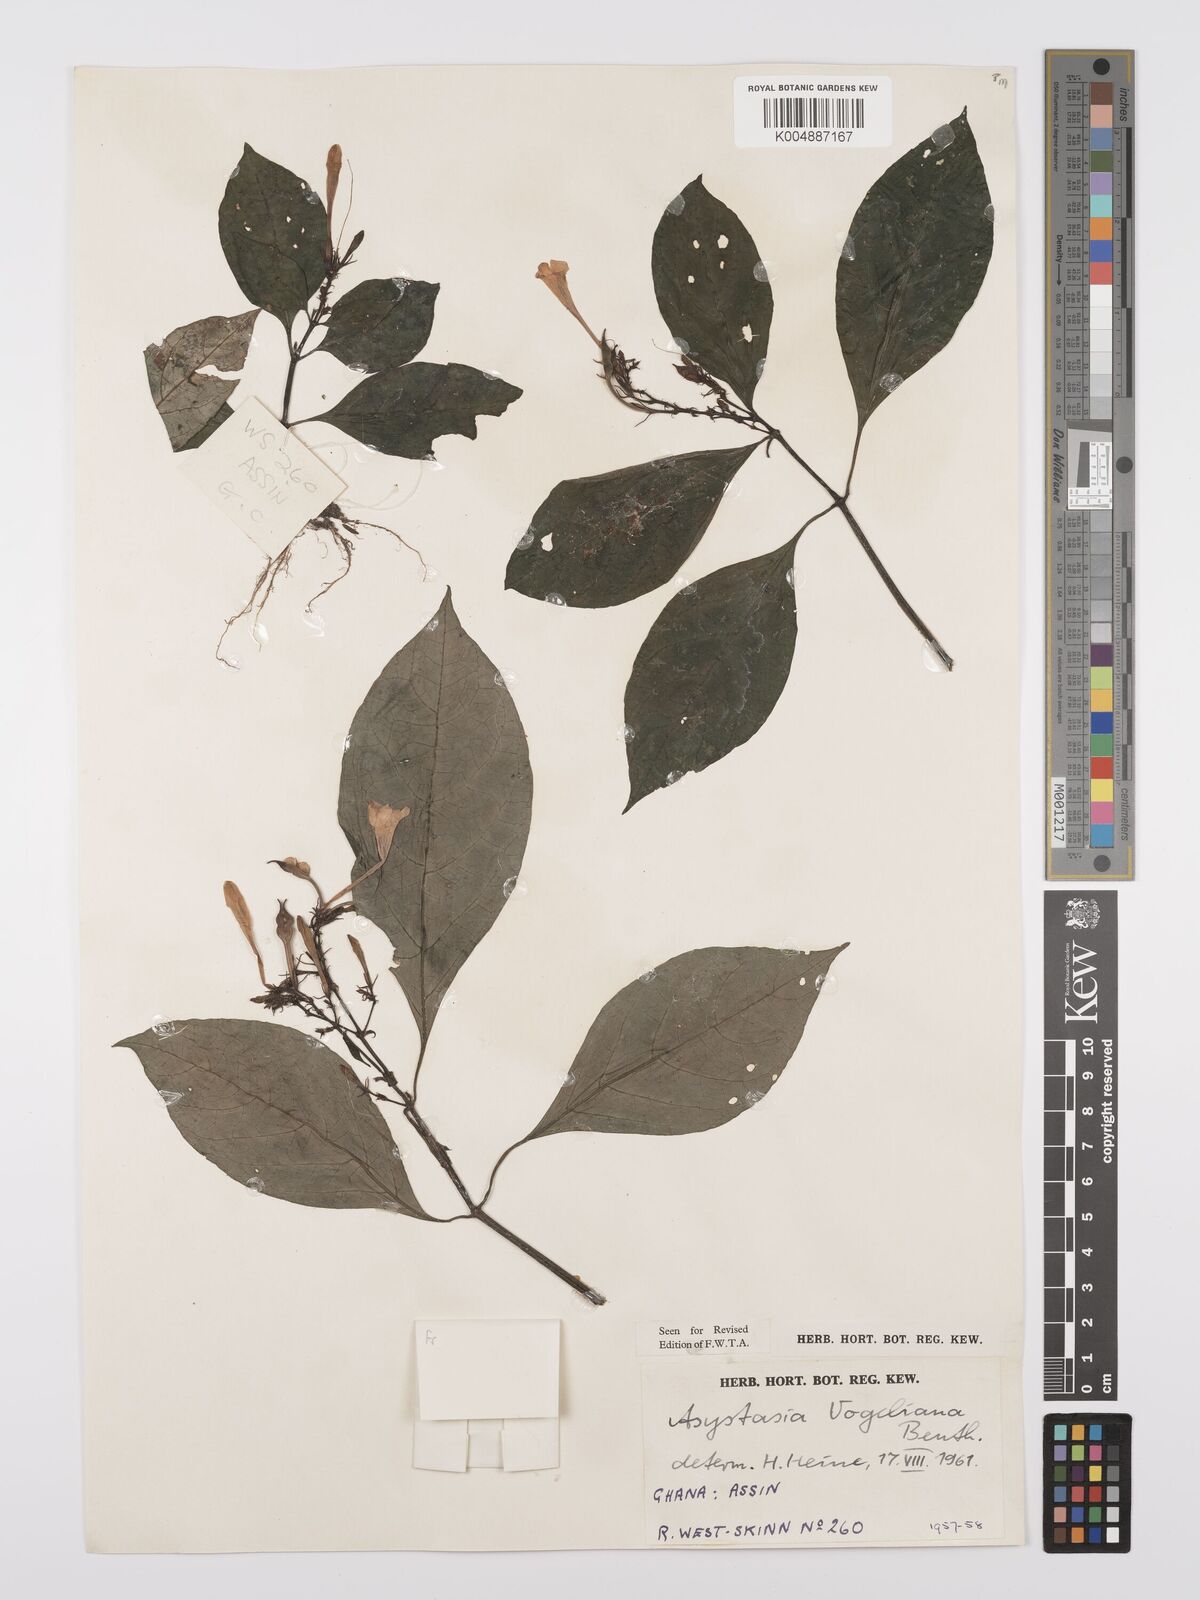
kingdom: Plantae
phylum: Tracheophyta
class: Magnoliopsida
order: Lamiales
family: Acanthaceae
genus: Asystasia
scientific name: Asystasia vogeliana
